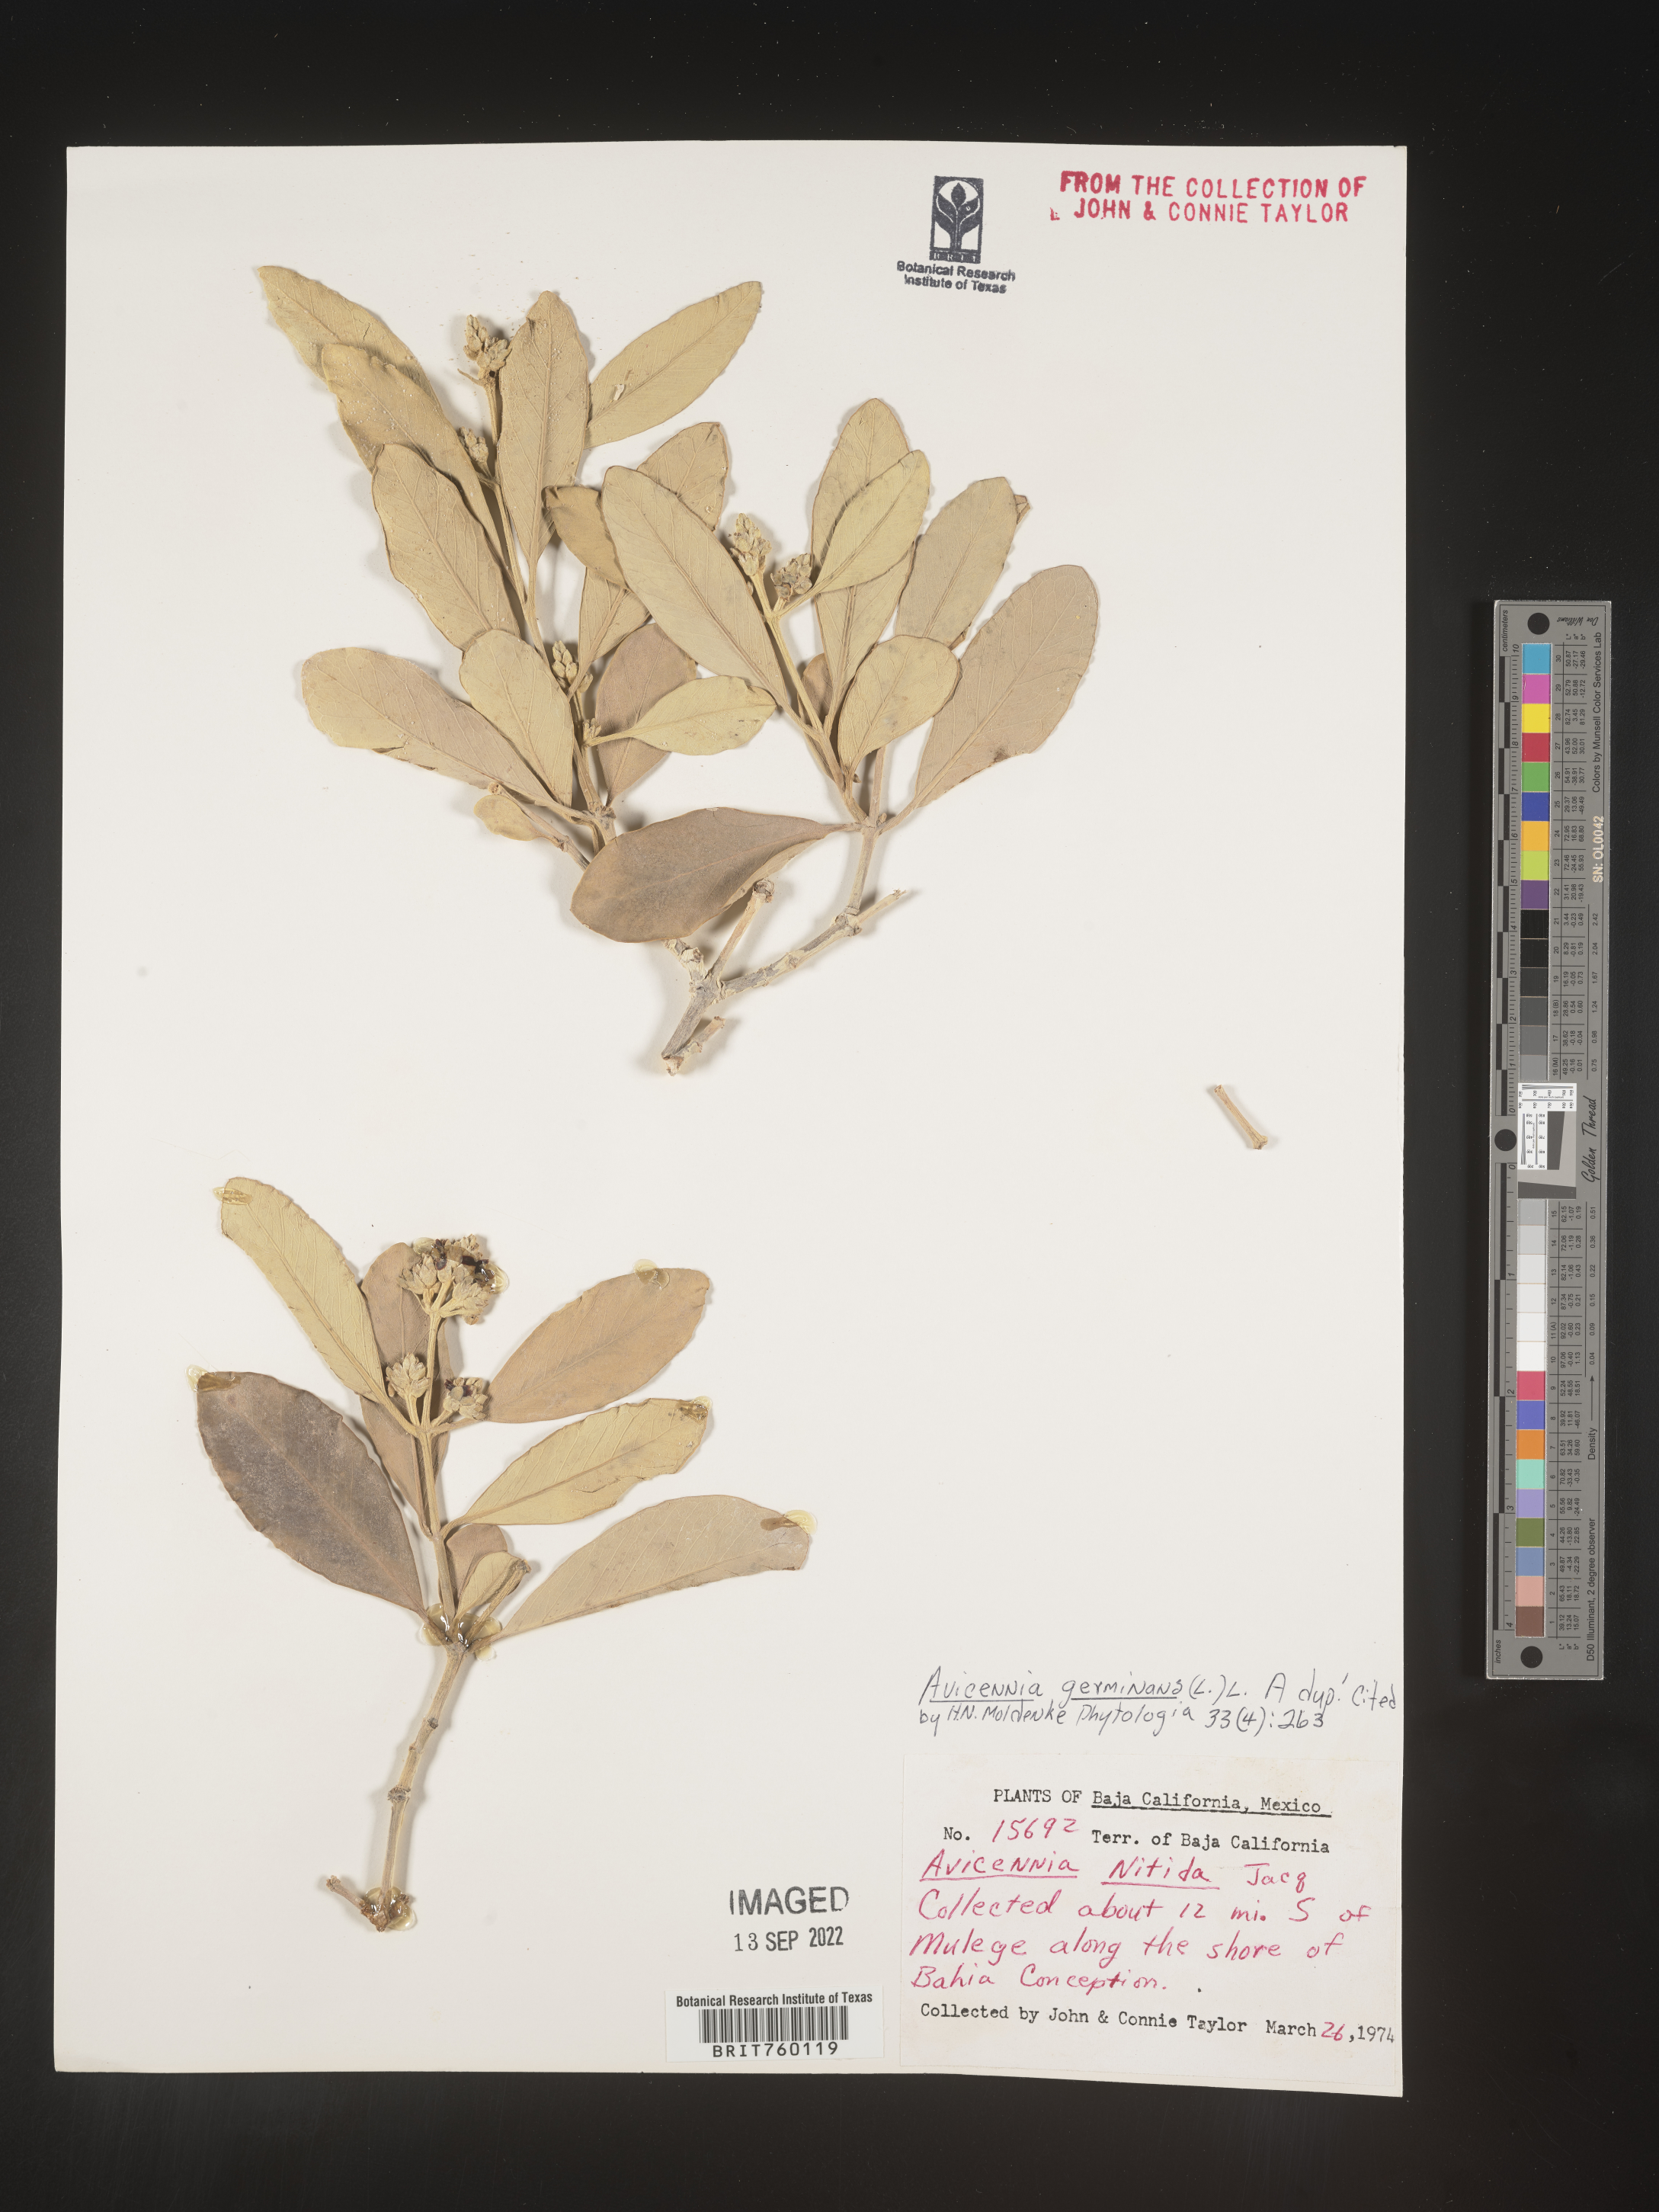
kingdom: Plantae
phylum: Tracheophyta
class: Magnoliopsida
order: Lamiales
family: Acanthaceae
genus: Avicennia
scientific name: Avicennia
